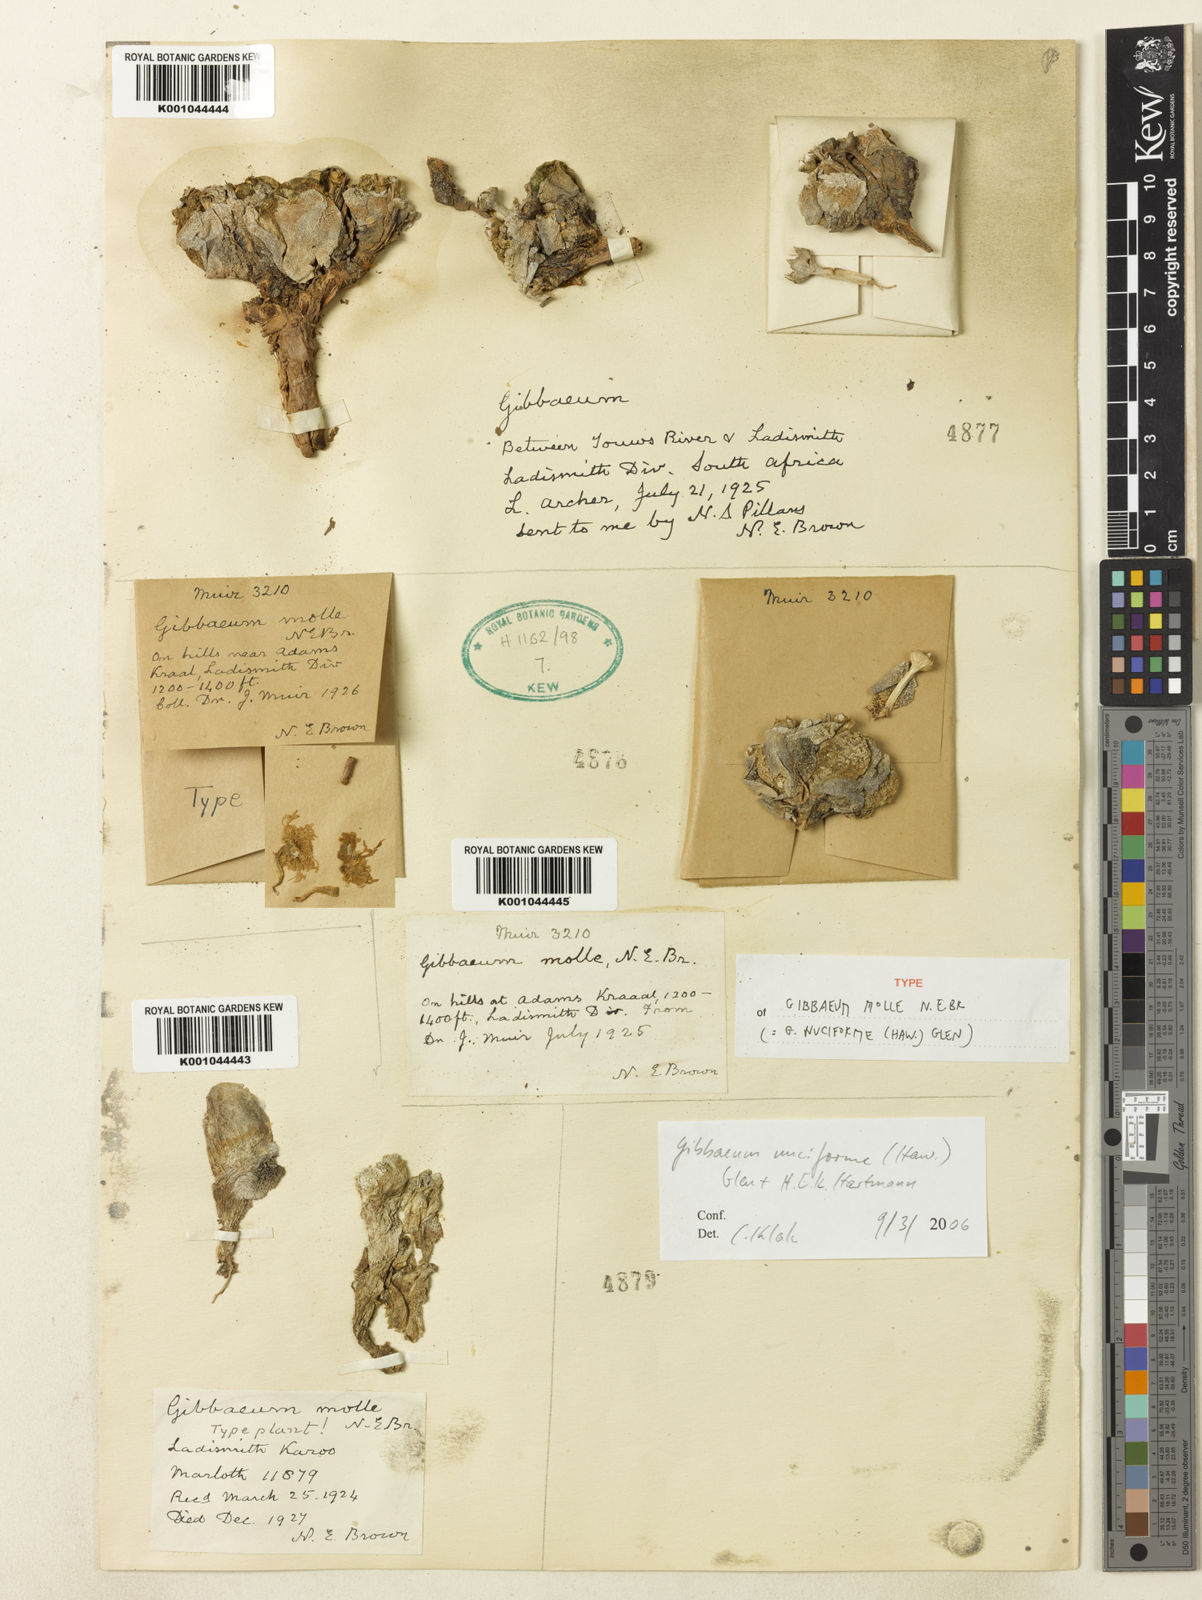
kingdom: Plantae
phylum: Tracheophyta
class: Magnoliopsida
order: Caryophyllales
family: Aizoaceae
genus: Gibbaeum
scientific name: Gibbaeum pilosulum
